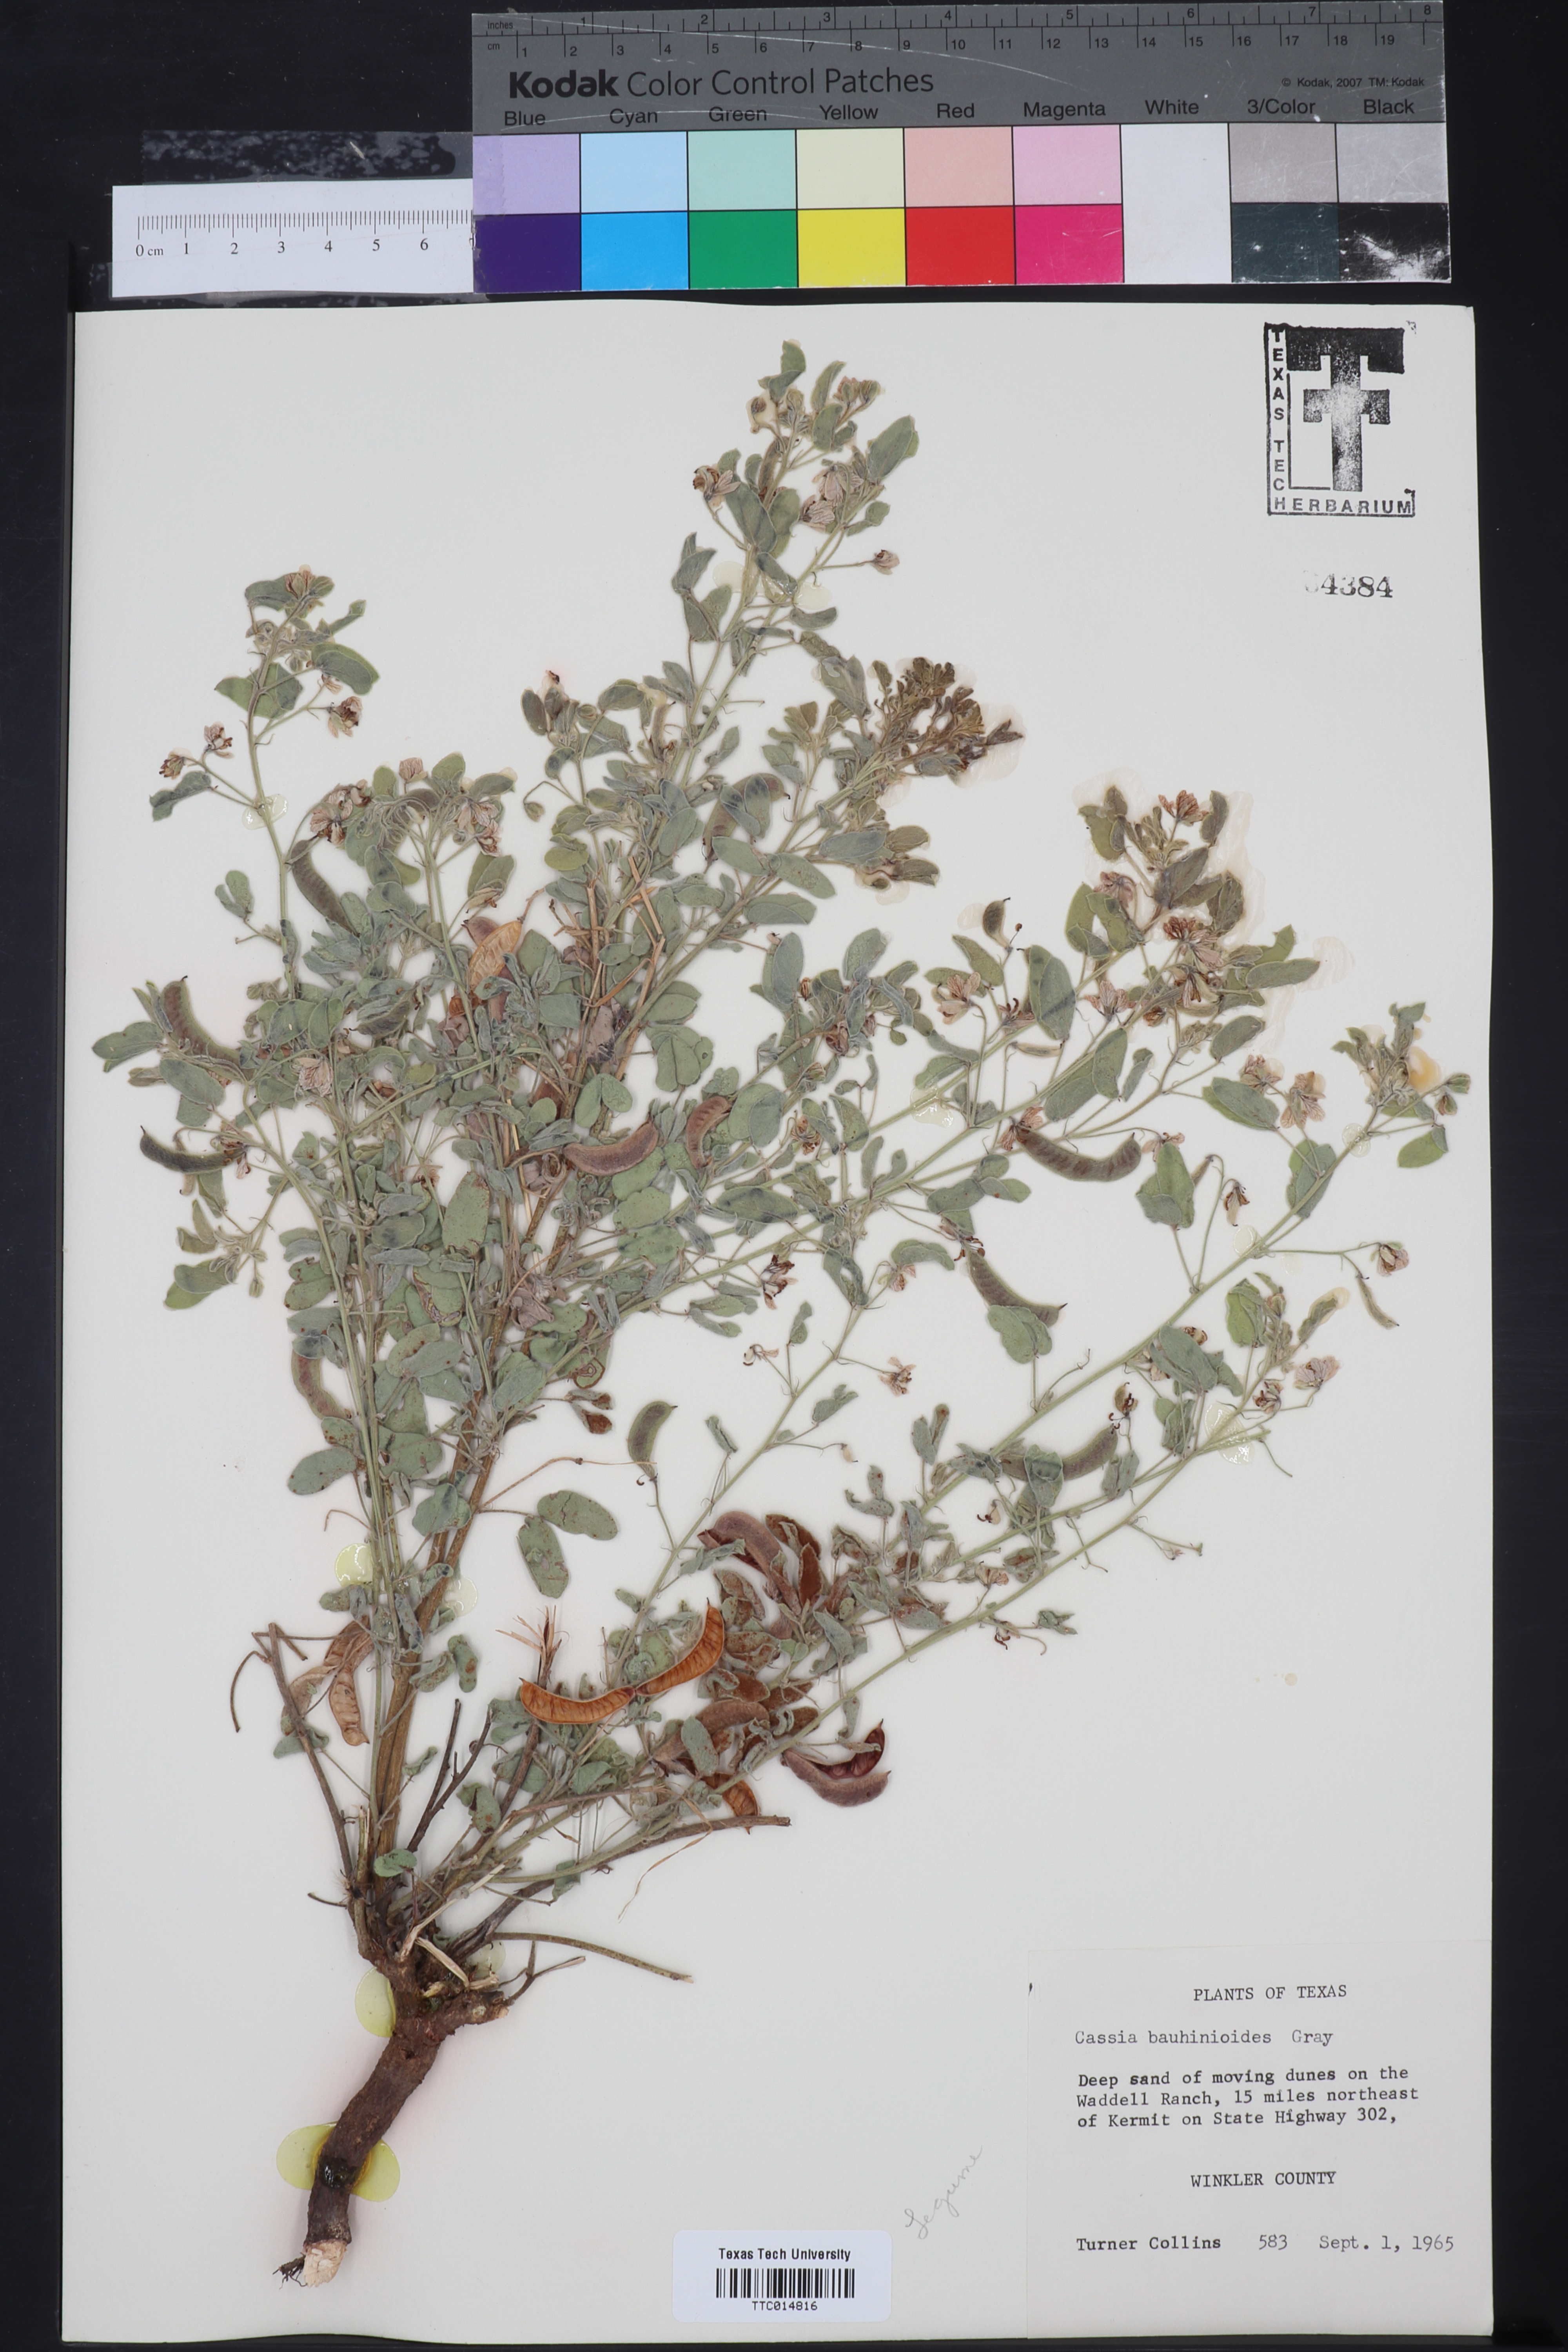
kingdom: Plantae
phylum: Tracheophyta
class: Magnoliopsida
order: Fabales
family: Fabaceae
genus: Senna
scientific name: Senna bauhinioides
